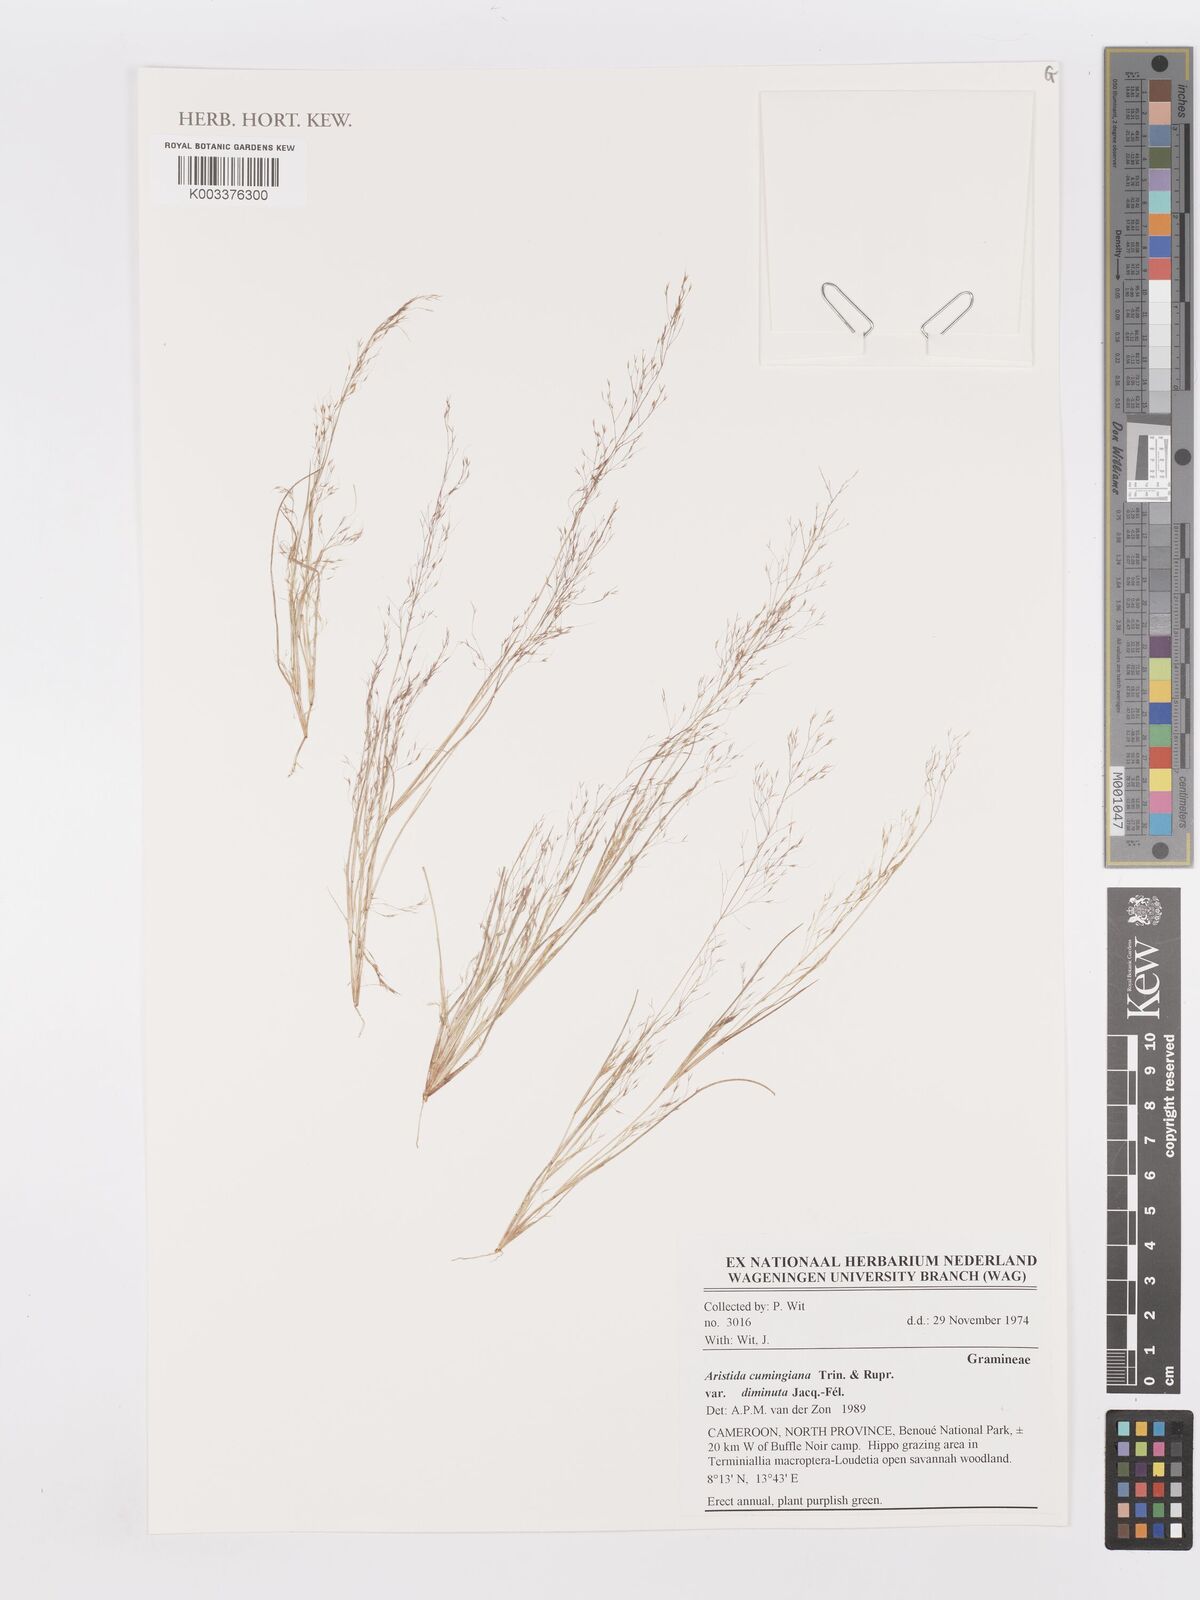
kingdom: Plantae
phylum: Tracheophyta
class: Liliopsida
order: Poales
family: Poaceae
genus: Aristida
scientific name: Aristida diminuta
